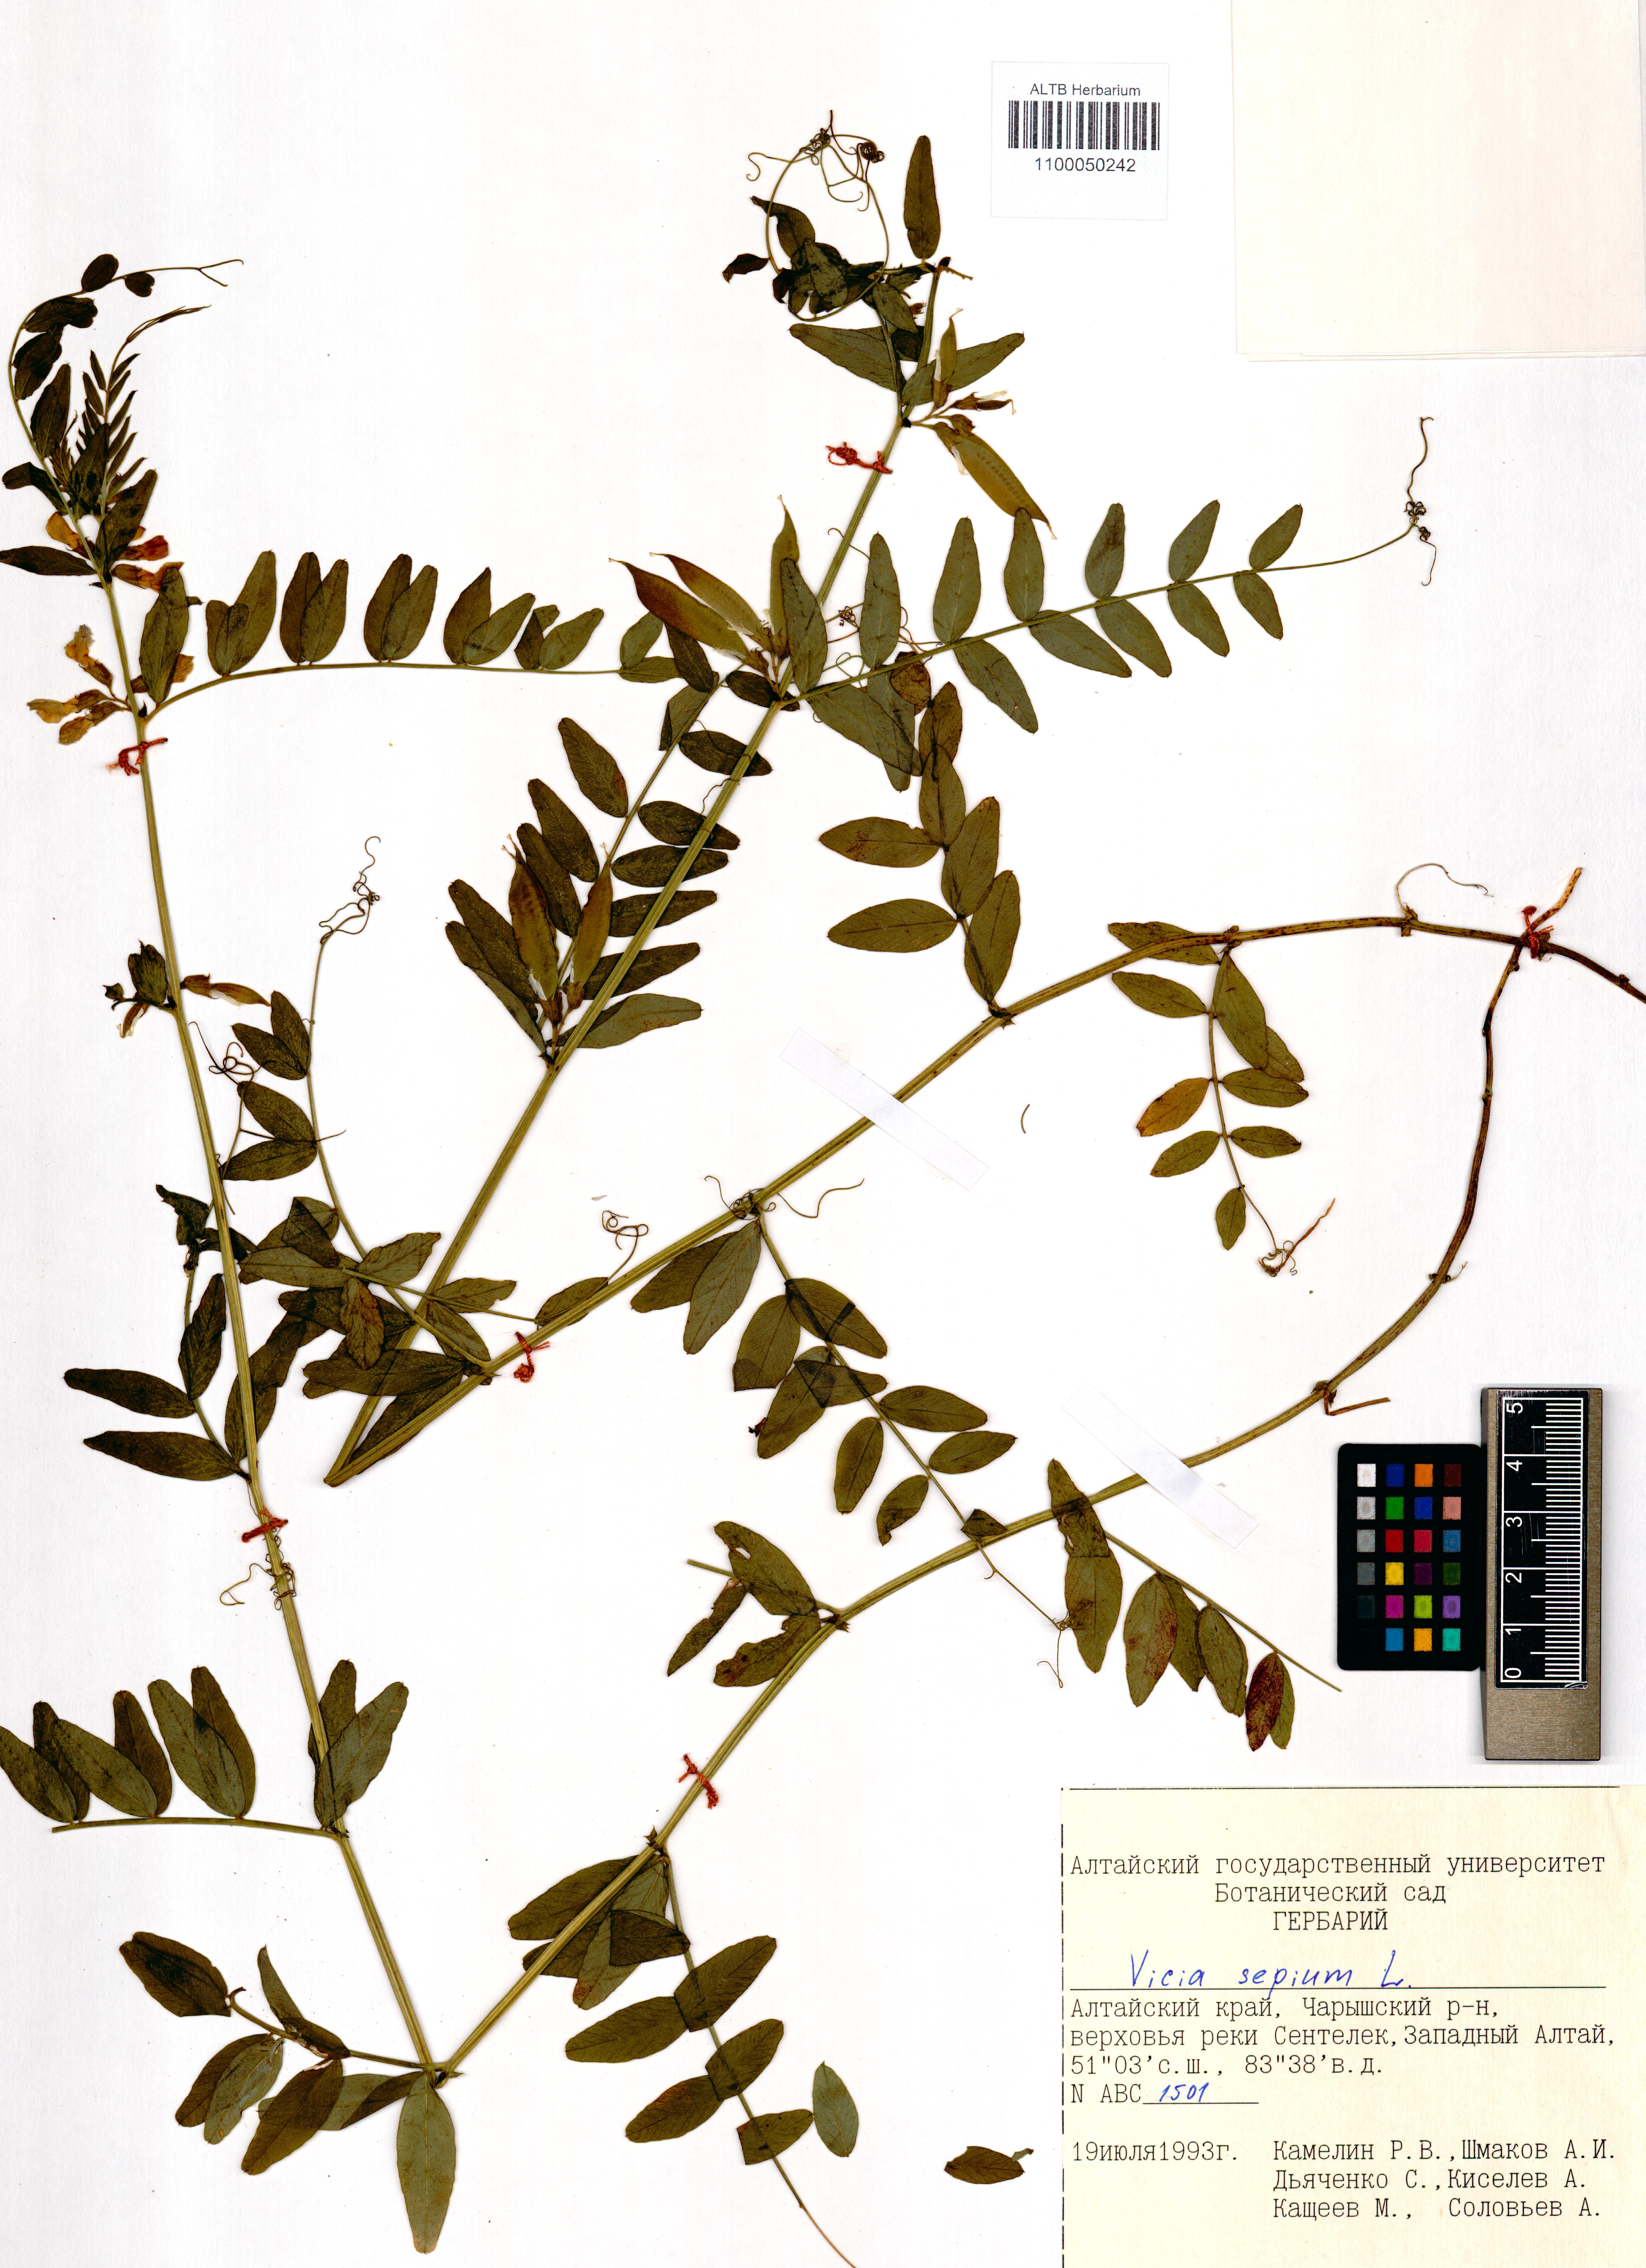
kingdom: Plantae
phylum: Tracheophyta
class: Magnoliopsida
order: Fabales
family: Fabaceae
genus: Vicia
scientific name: Vicia sepium
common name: Bush vetch
